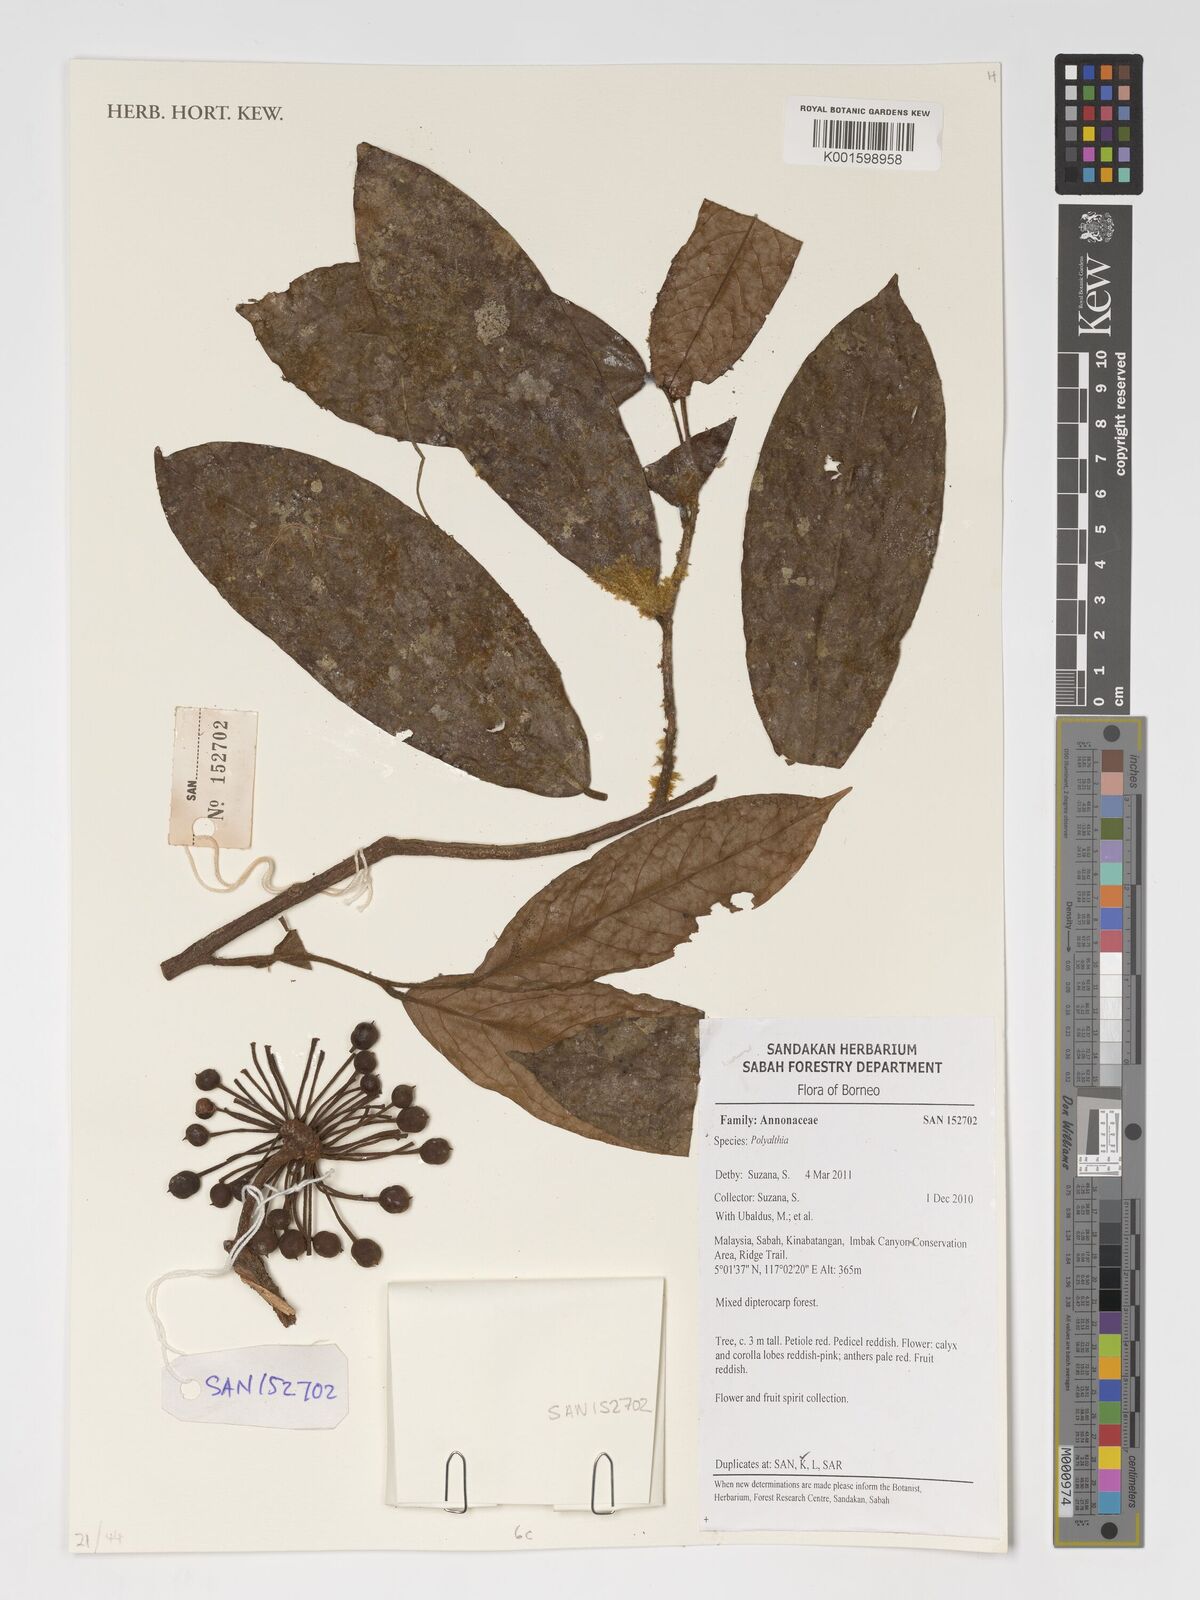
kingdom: Plantae
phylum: Tracheophyta
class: Magnoliopsida
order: Magnoliales
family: Annonaceae
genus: Polyalthia
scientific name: Polyalthia
